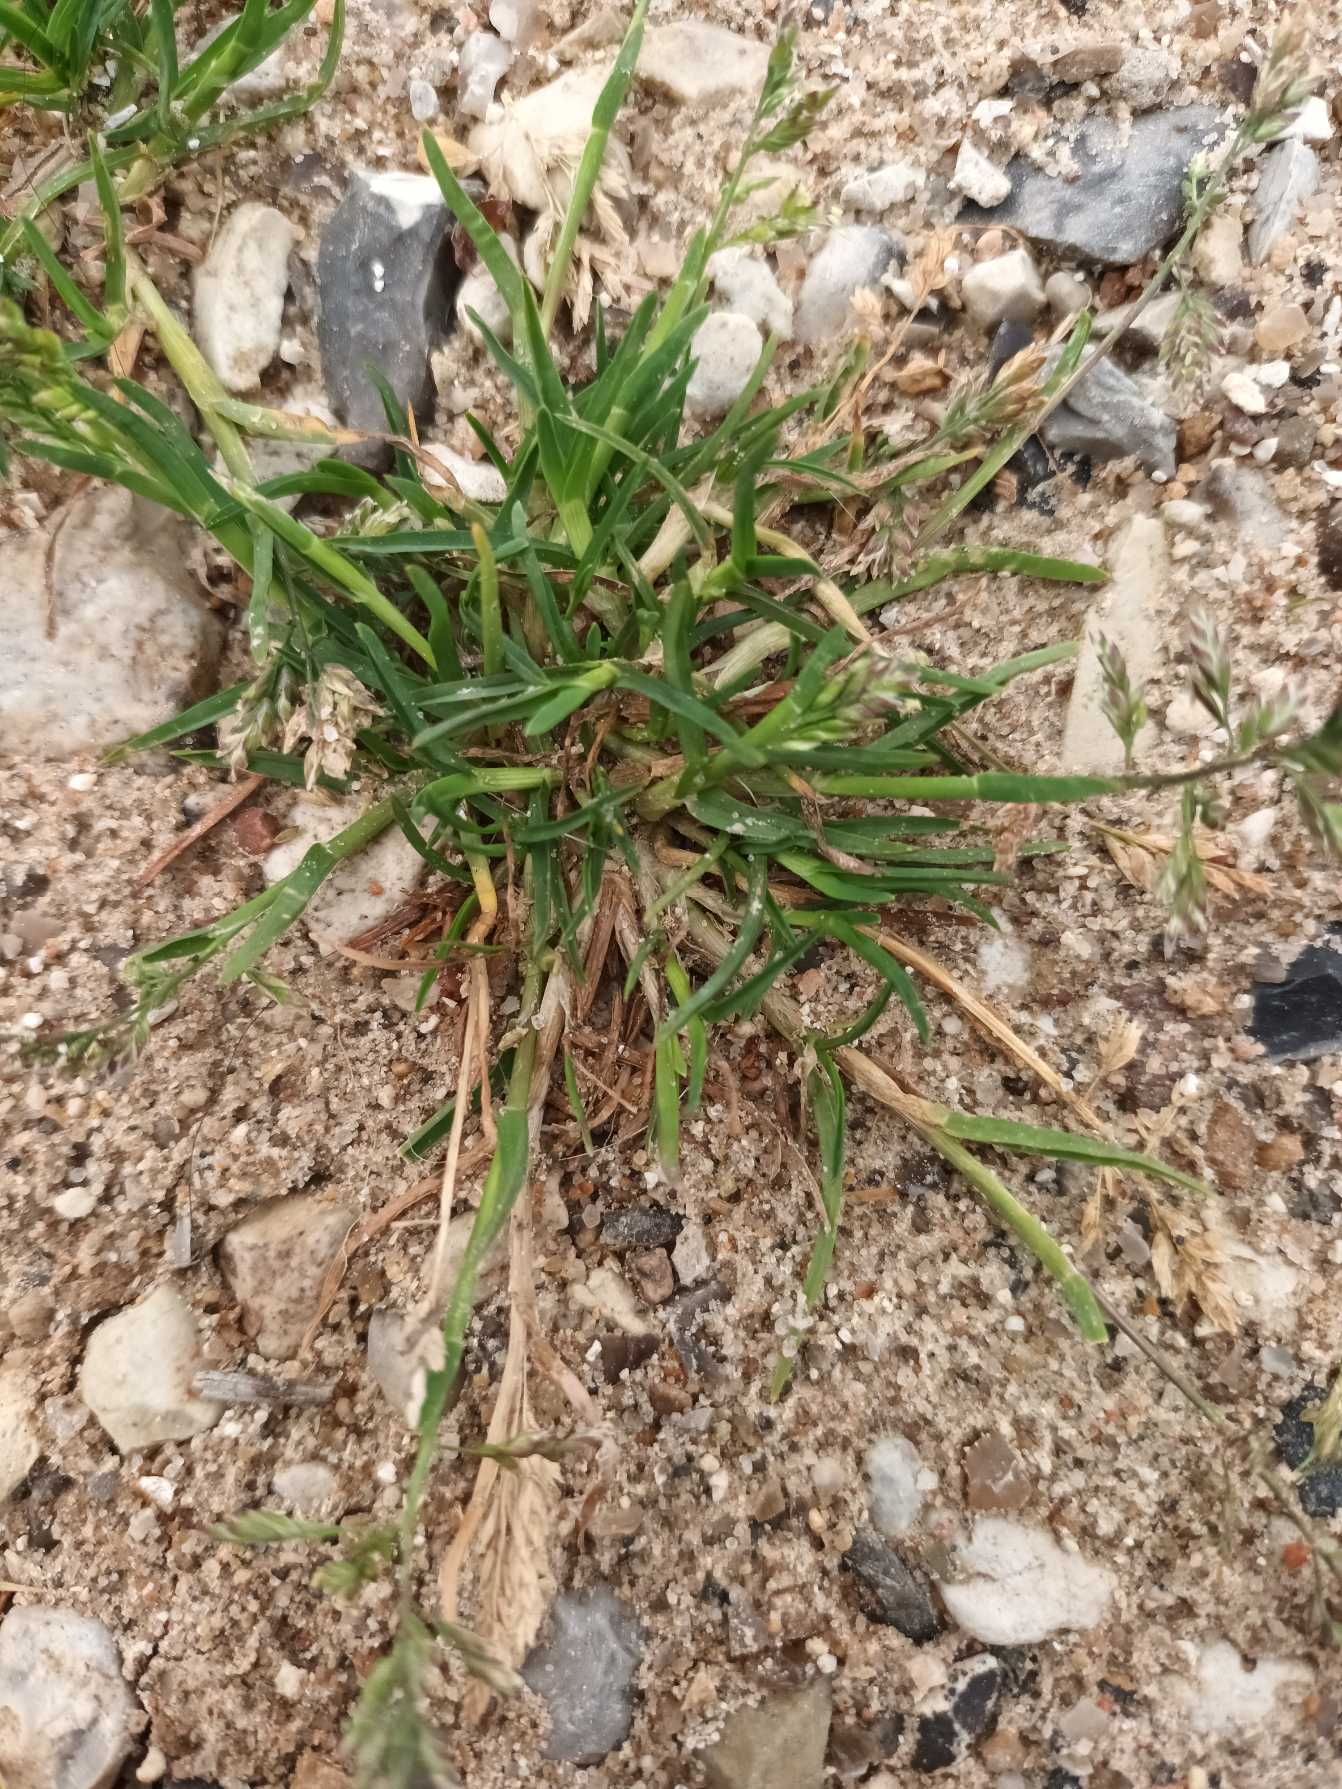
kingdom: Plantae
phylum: Tracheophyta
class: Liliopsida
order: Poales
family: Poaceae
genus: Poa
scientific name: Poa annua
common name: Enårig rapgræs
